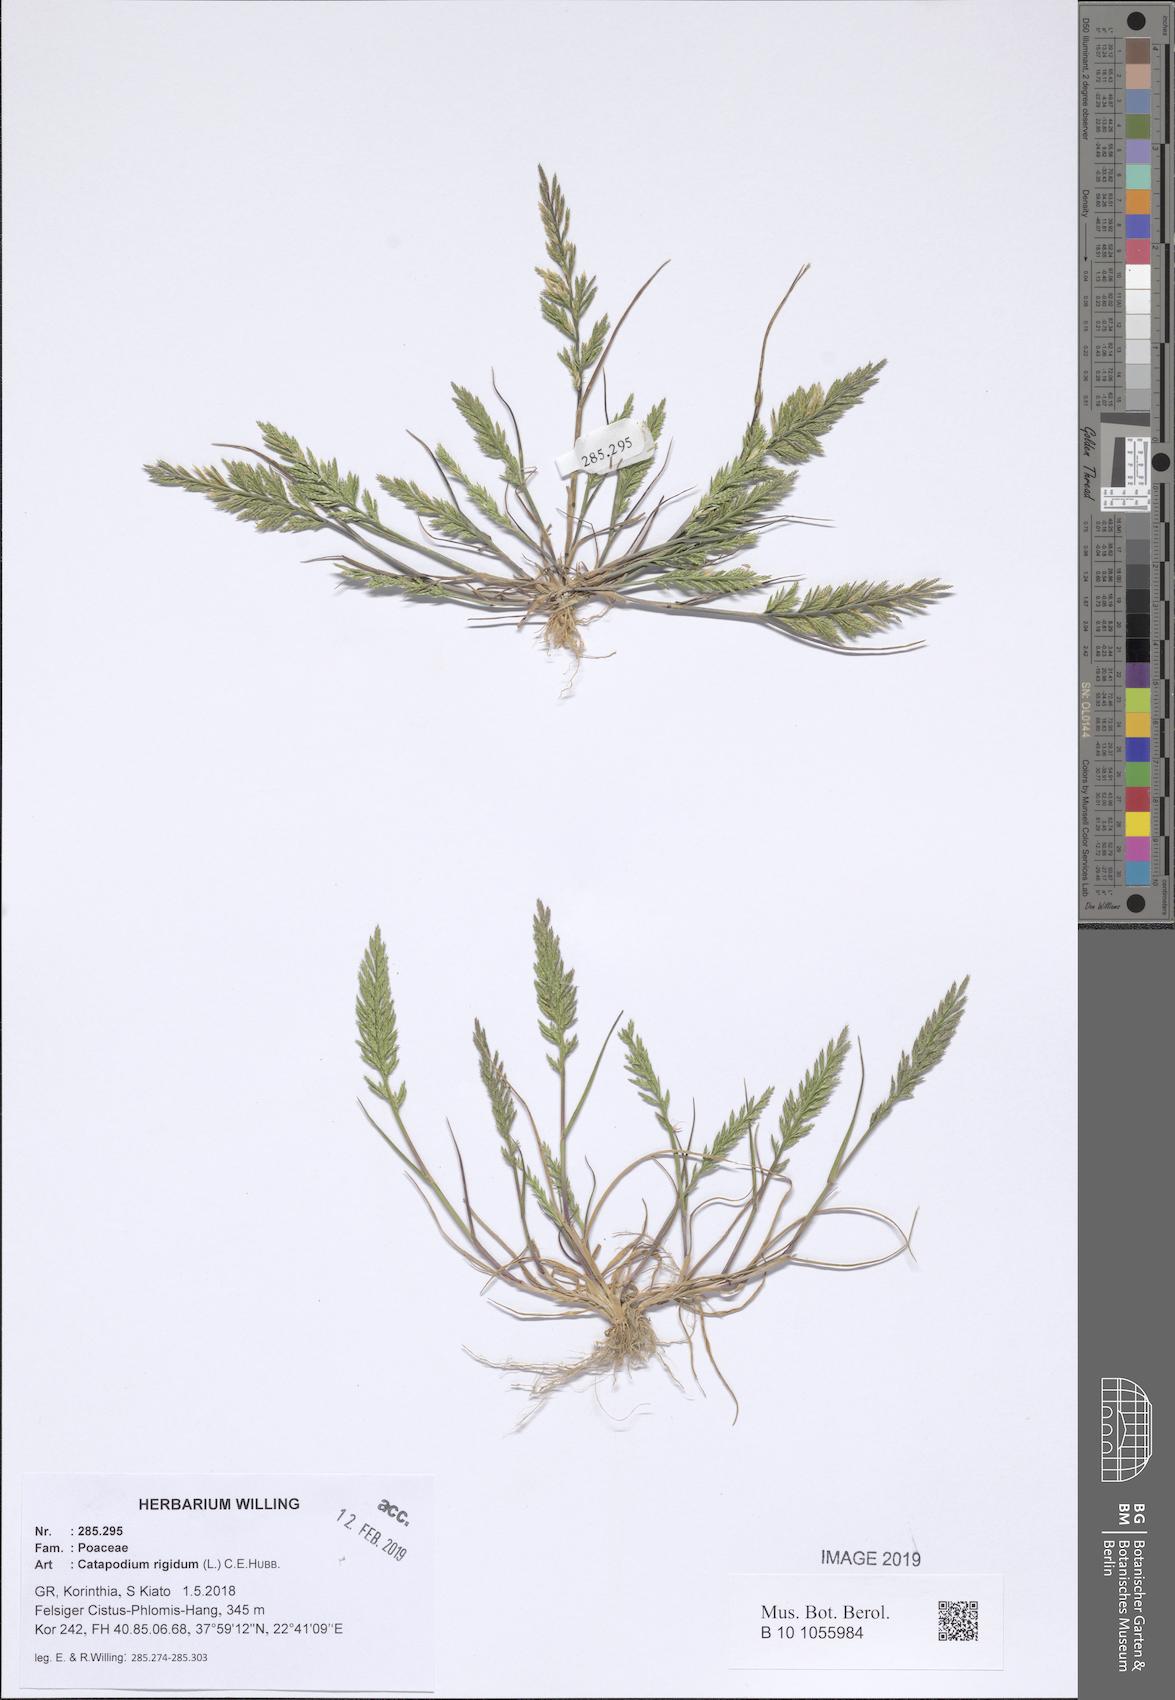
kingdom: Plantae
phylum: Tracheophyta
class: Liliopsida
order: Poales
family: Poaceae
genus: Catapodium
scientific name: Catapodium rigidum
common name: Fern-grass
